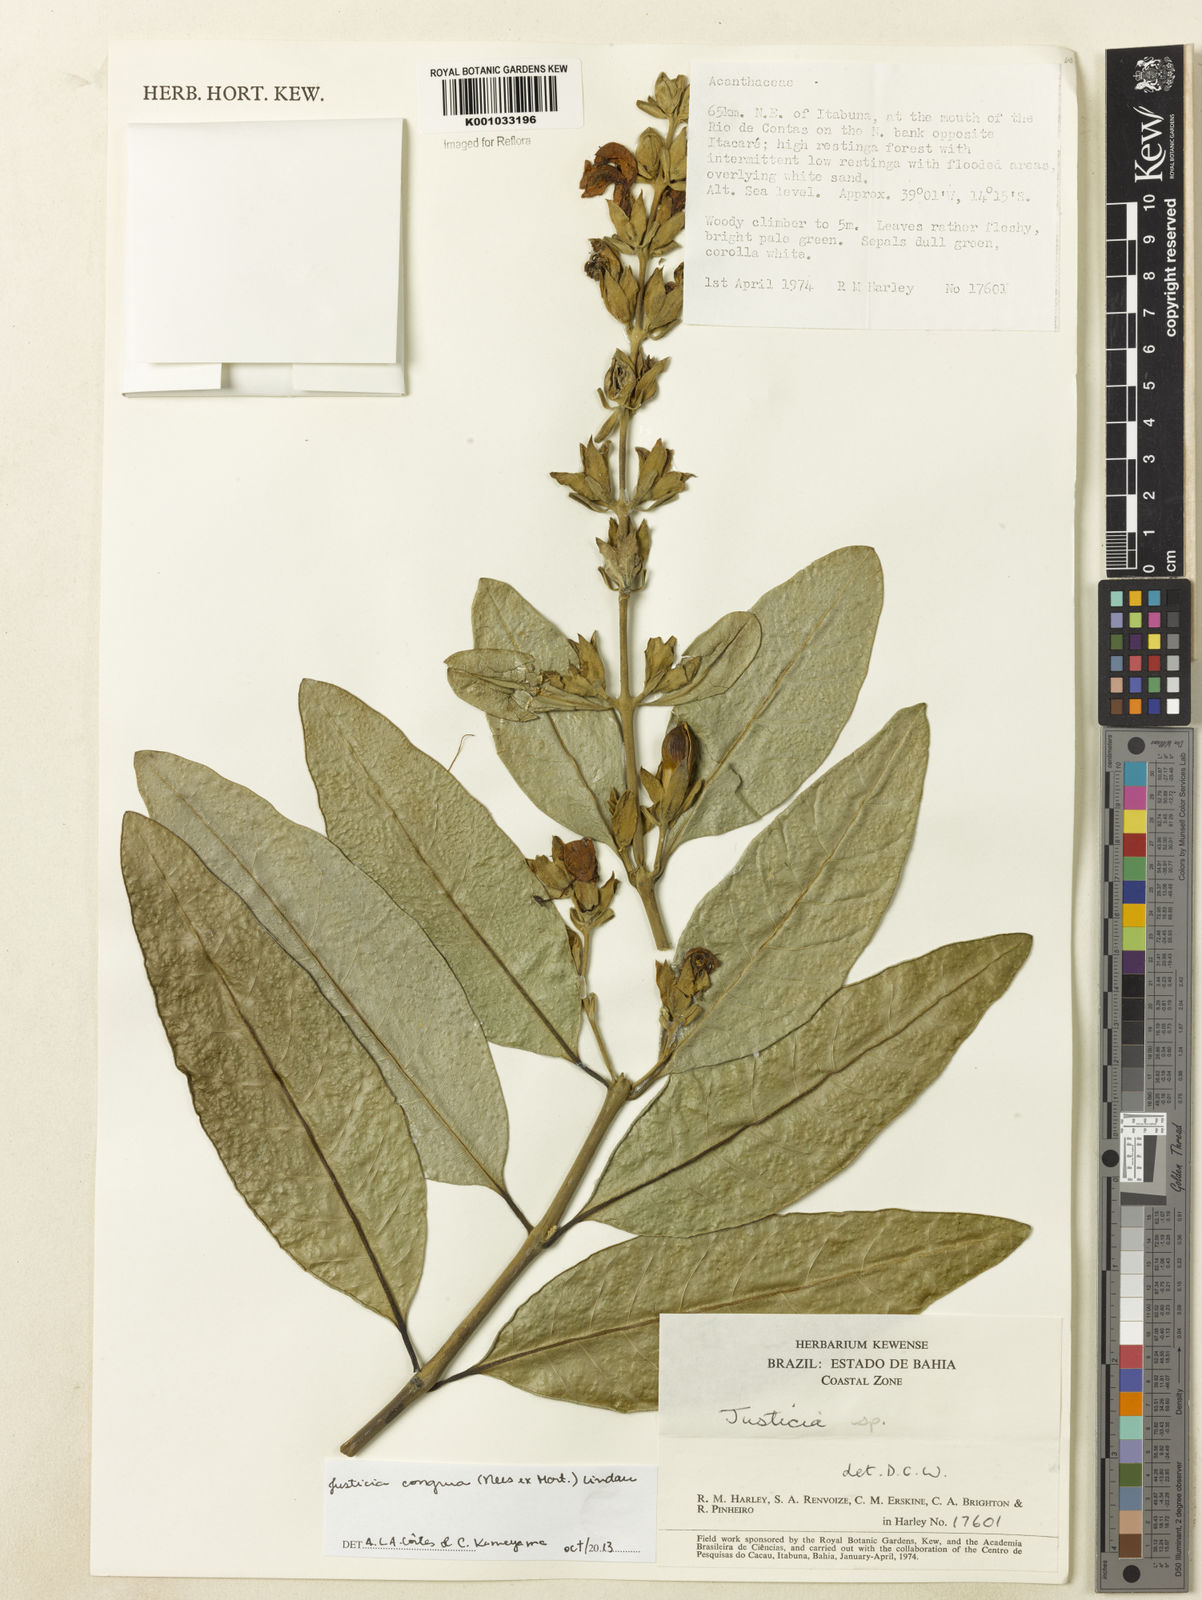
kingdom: Plantae
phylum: Tracheophyta
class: Magnoliopsida
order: Lamiales
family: Acanthaceae
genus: Justicia
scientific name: Justicia congrua
